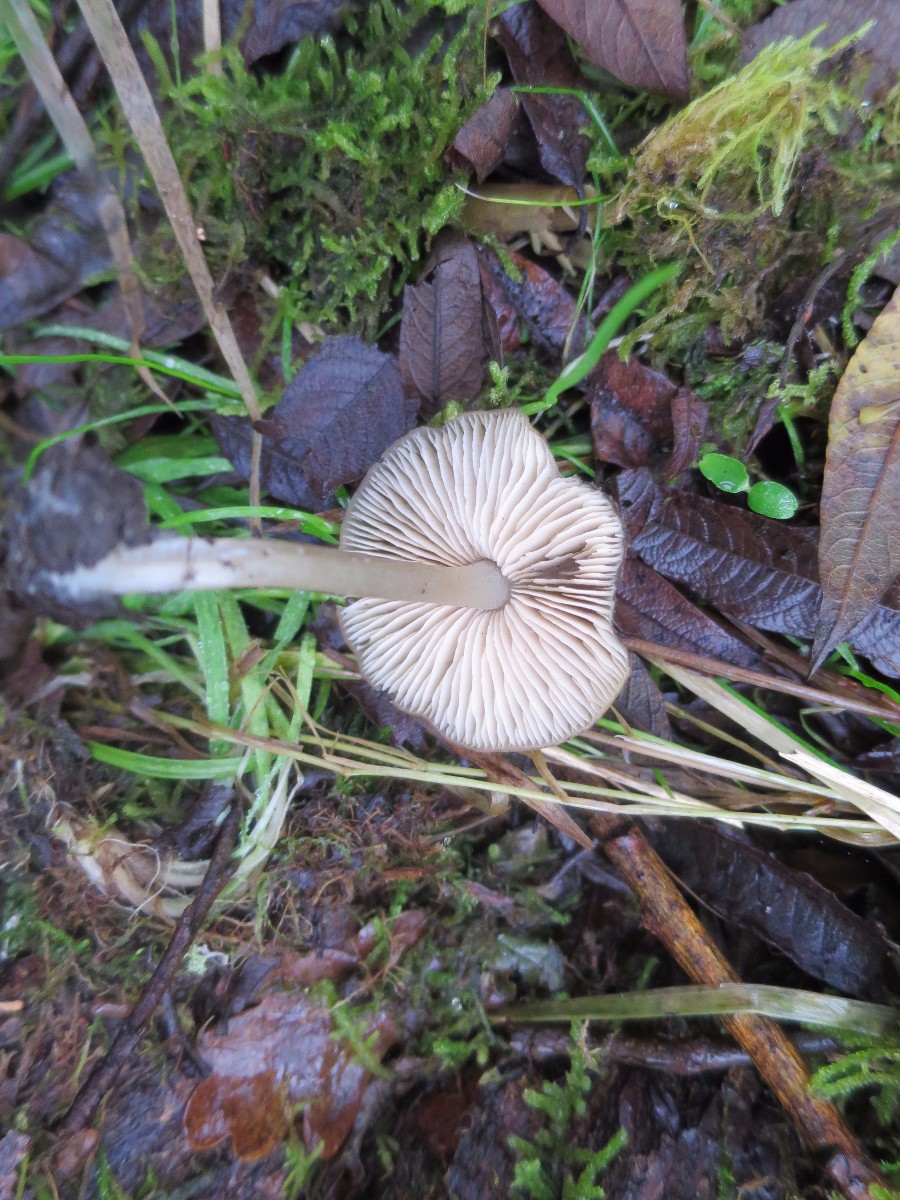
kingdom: Fungi
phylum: Basidiomycota
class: Agaricomycetes
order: Agaricales
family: Entolomataceae
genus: Entoloma
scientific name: Entoloma
